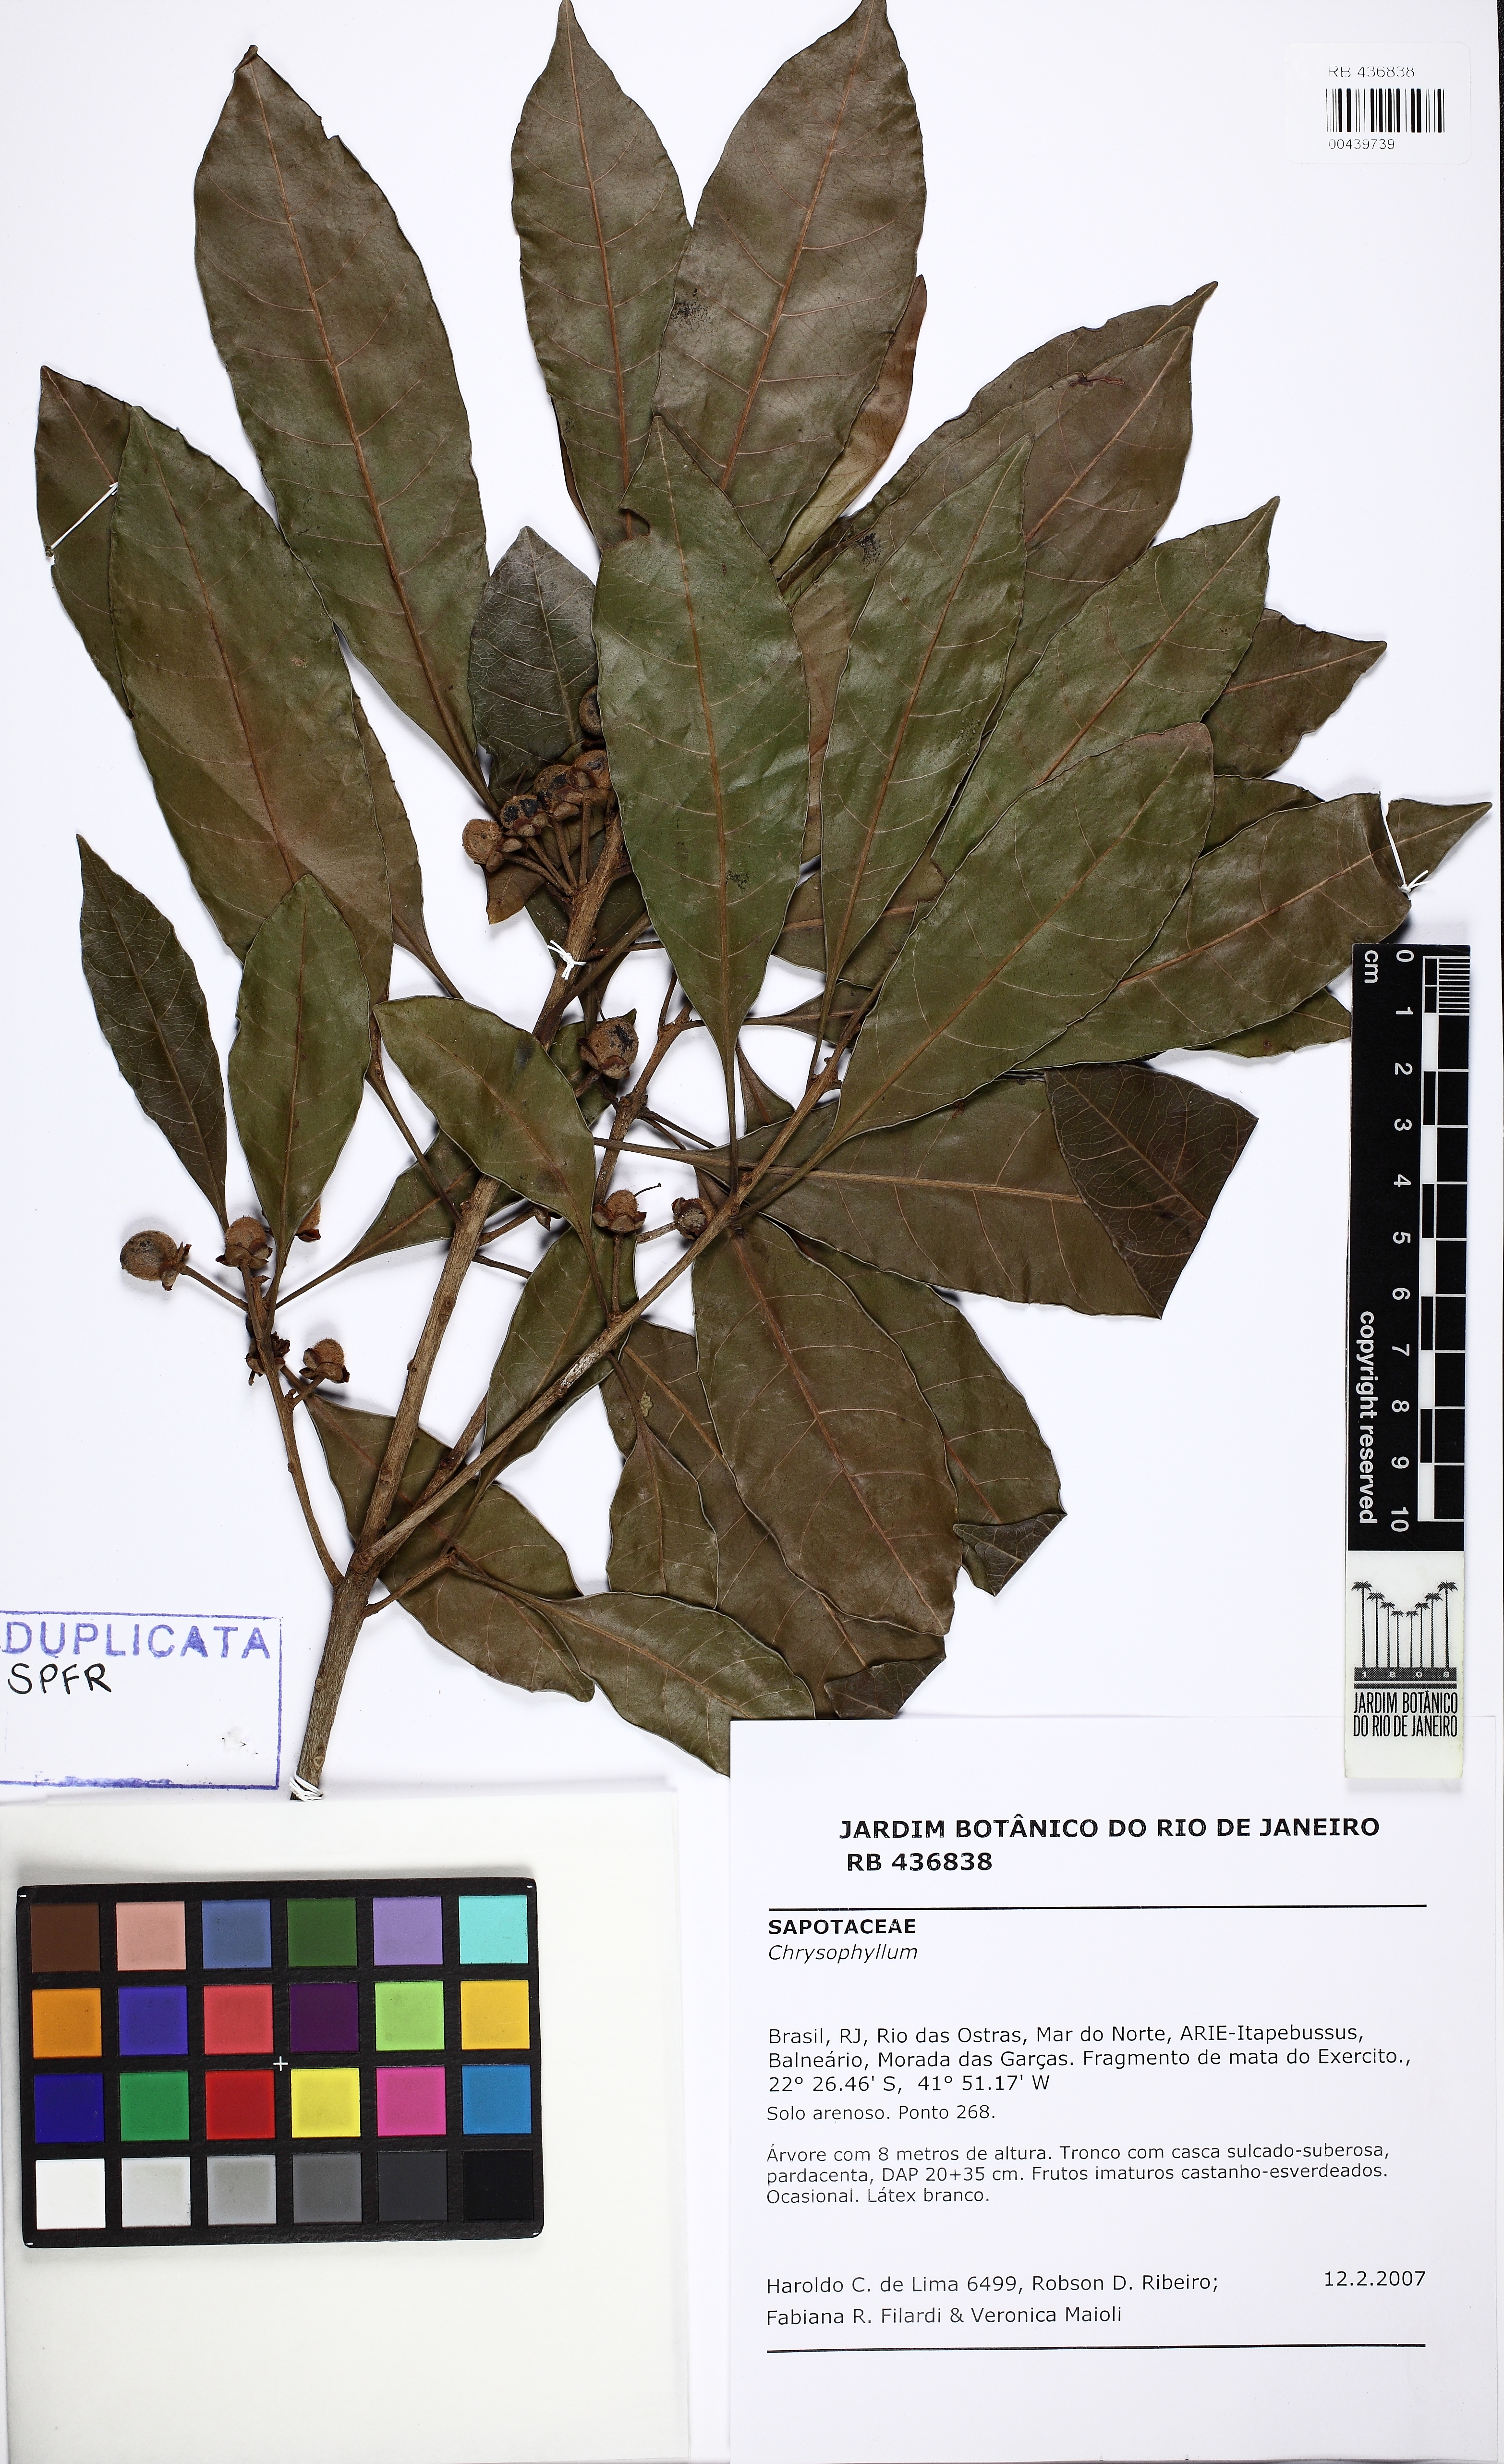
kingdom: Plantae
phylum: Tracheophyta
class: Magnoliopsida
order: Ericales
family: Sapotaceae
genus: Pouteria
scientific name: Pouteria venosa
